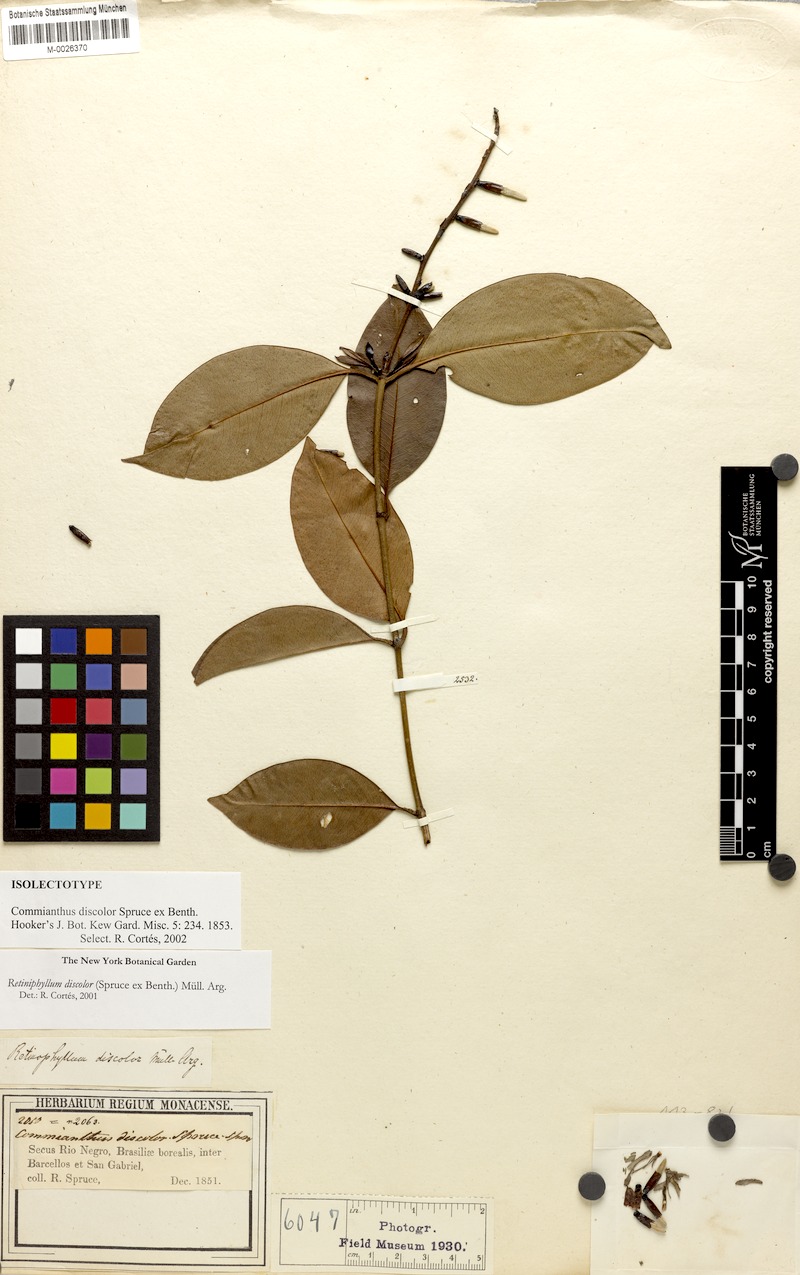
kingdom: Plantae
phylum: Tracheophyta
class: Magnoliopsida
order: Gentianales
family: Rubiaceae
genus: Retiniphyllum
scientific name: Retiniphyllum discolor
